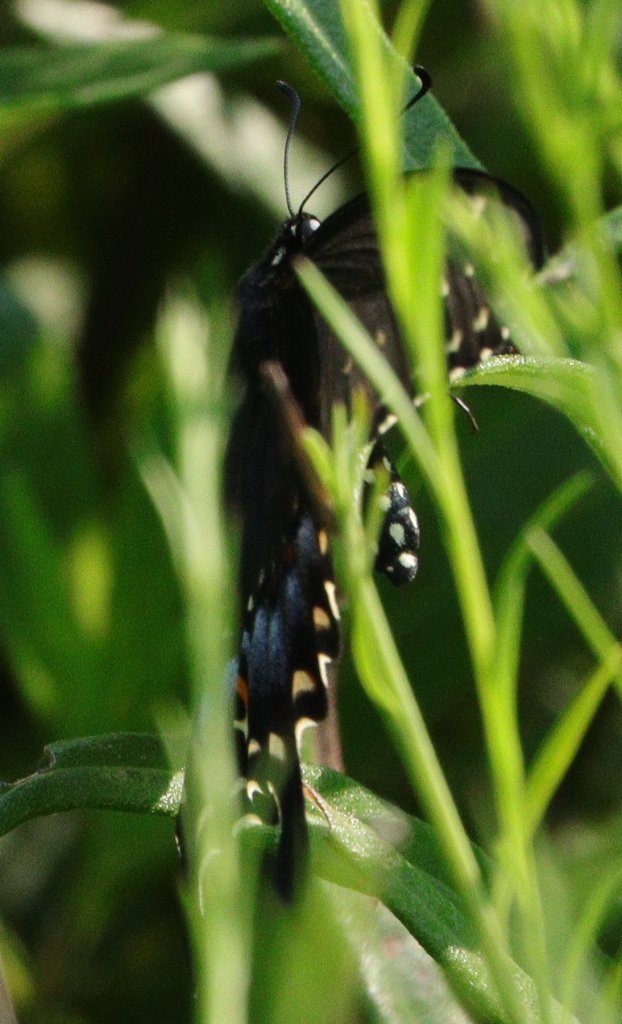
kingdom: Animalia
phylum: Arthropoda
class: Insecta
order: Lepidoptera
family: Papilionidae
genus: Papilio
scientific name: Papilio polyxenes
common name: Black Swallowtail
